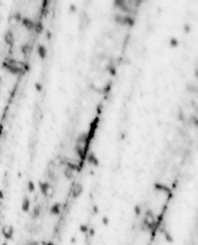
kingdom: Animalia
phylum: Chordata
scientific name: Chordata
